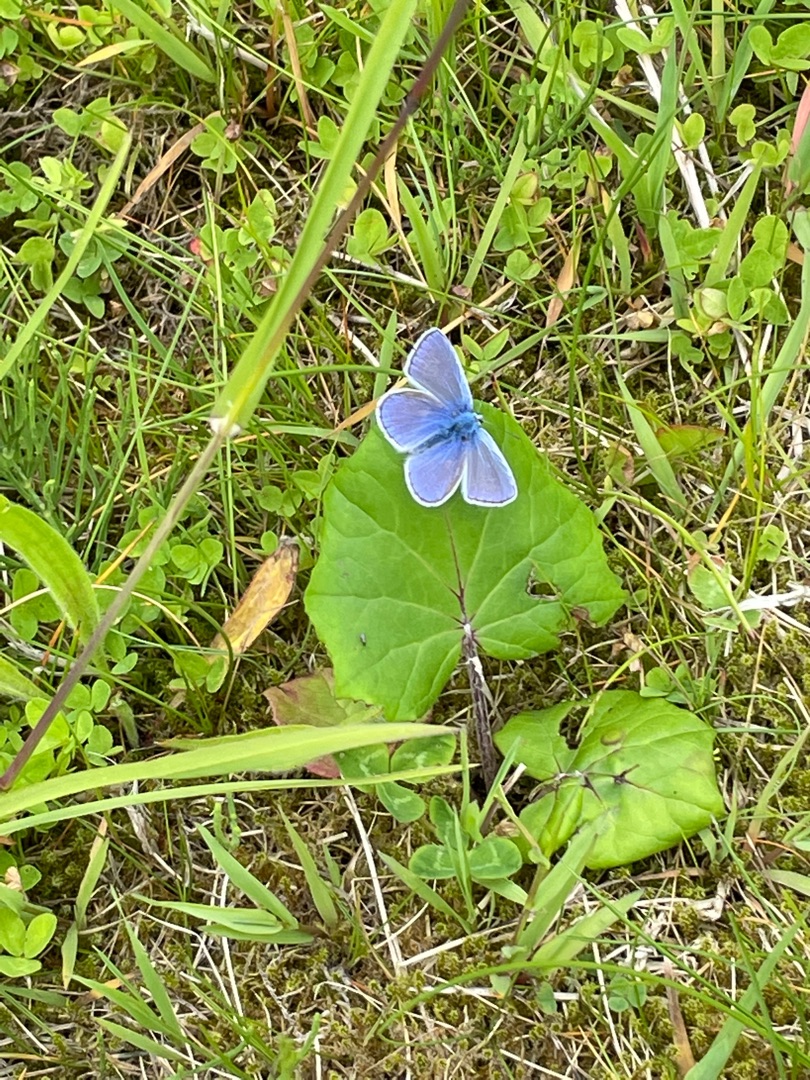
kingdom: Animalia
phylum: Arthropoda
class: Insecta
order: Lepidoptera
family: Lycaenidae
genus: Polyommatus
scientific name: Polyommatus icarus
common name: Almindelig blåfugl
